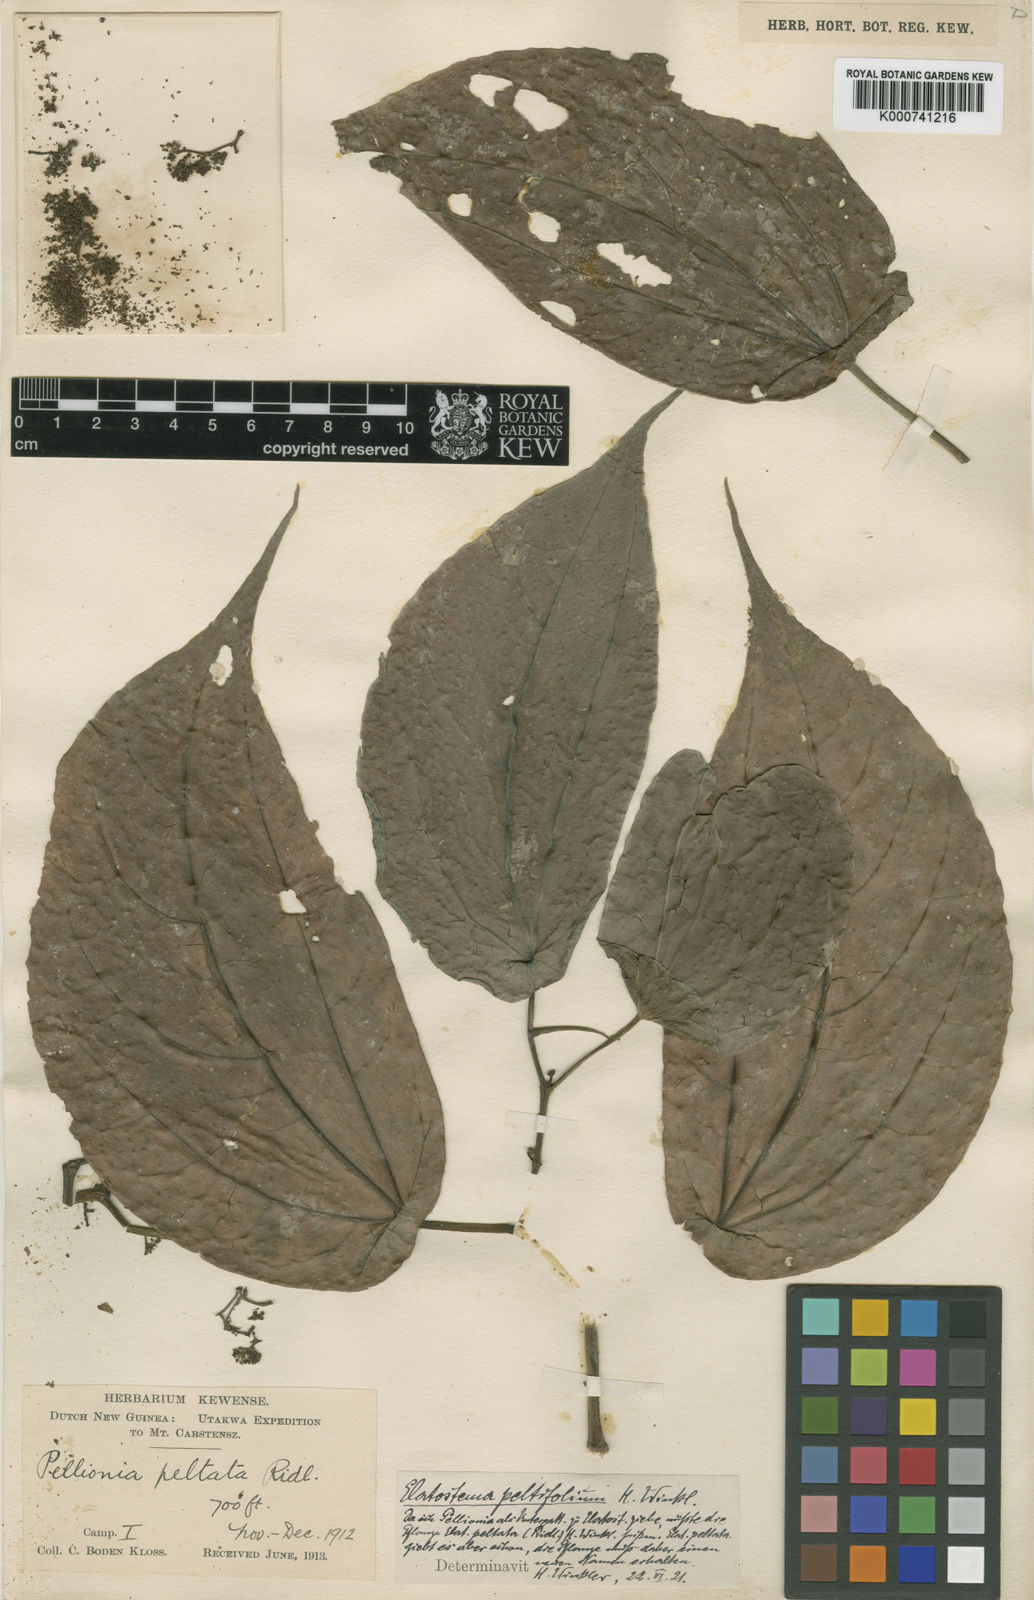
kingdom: Plantae
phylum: Tracheophyta
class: Magnoliopsida
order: Rosales
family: Urticaceae
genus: Elatostema
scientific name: Elatostema peltifolium
